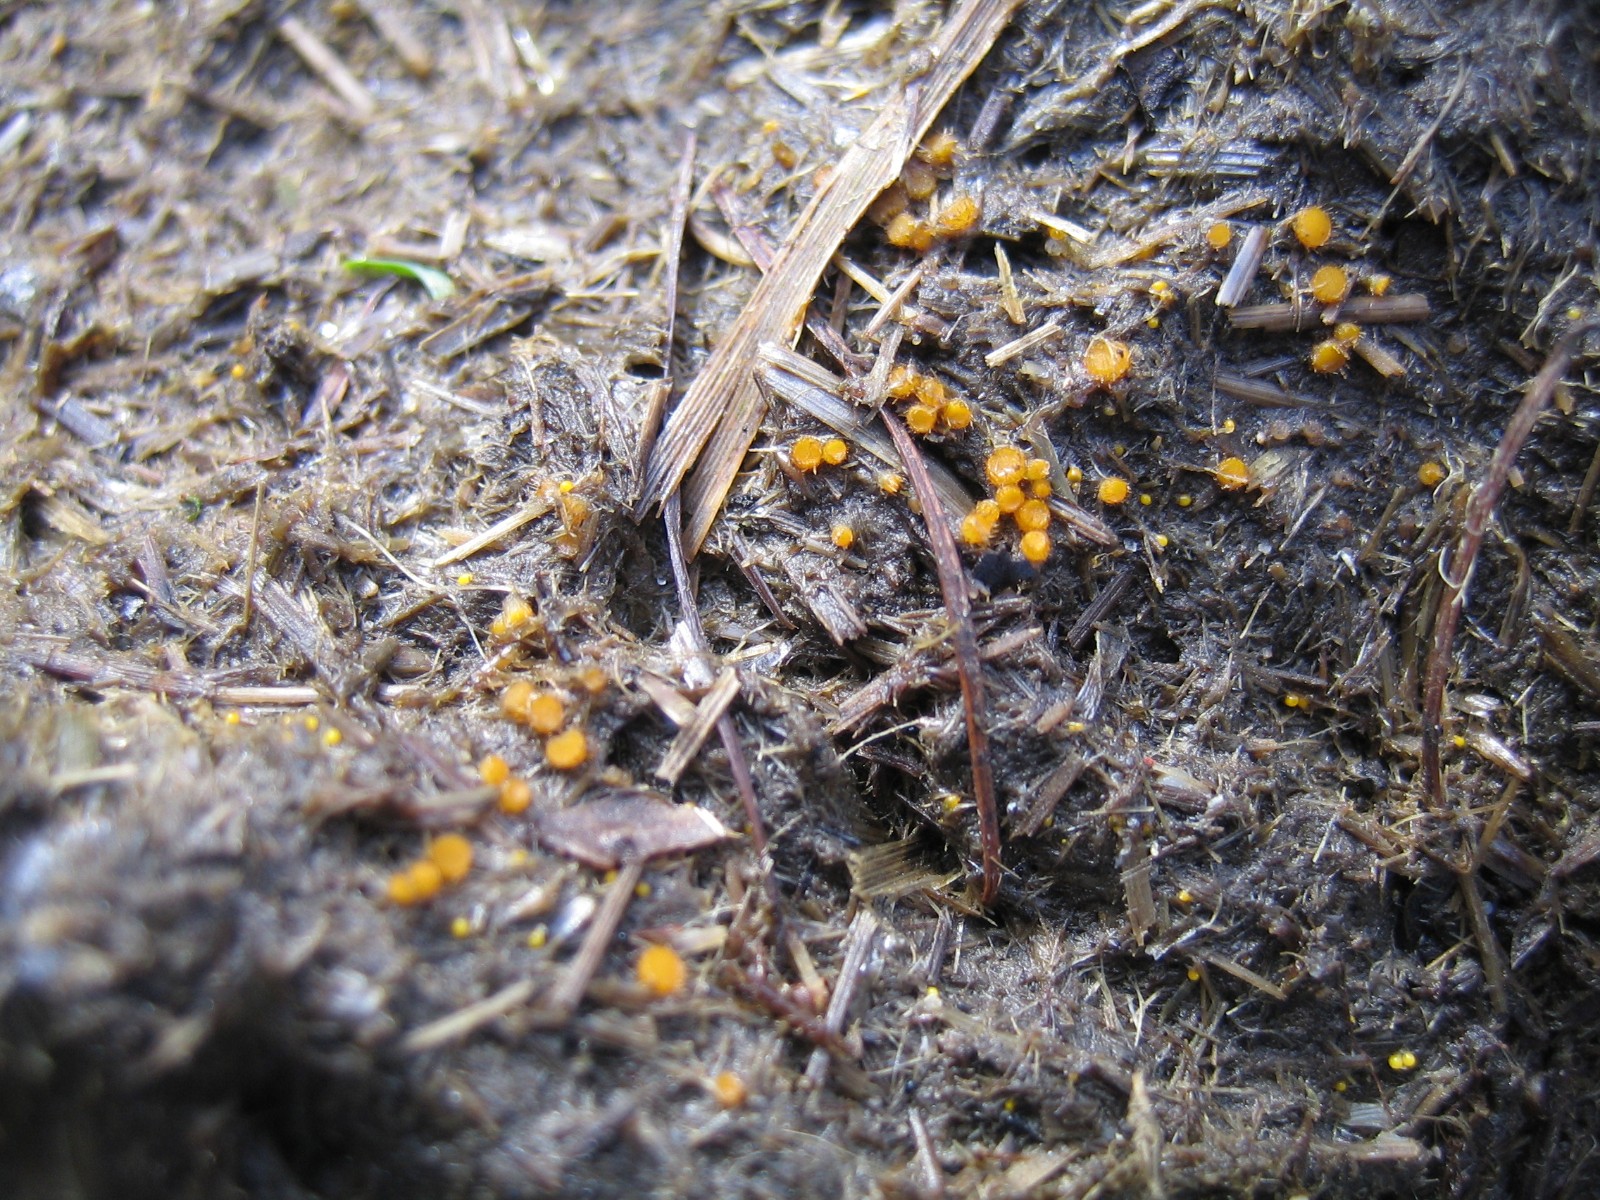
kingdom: Fungi
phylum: Ascomycota
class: Pezizomycetes
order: Pezizales
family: Pyronemataceae
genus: Cheilymenia
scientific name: Cheilymenia
